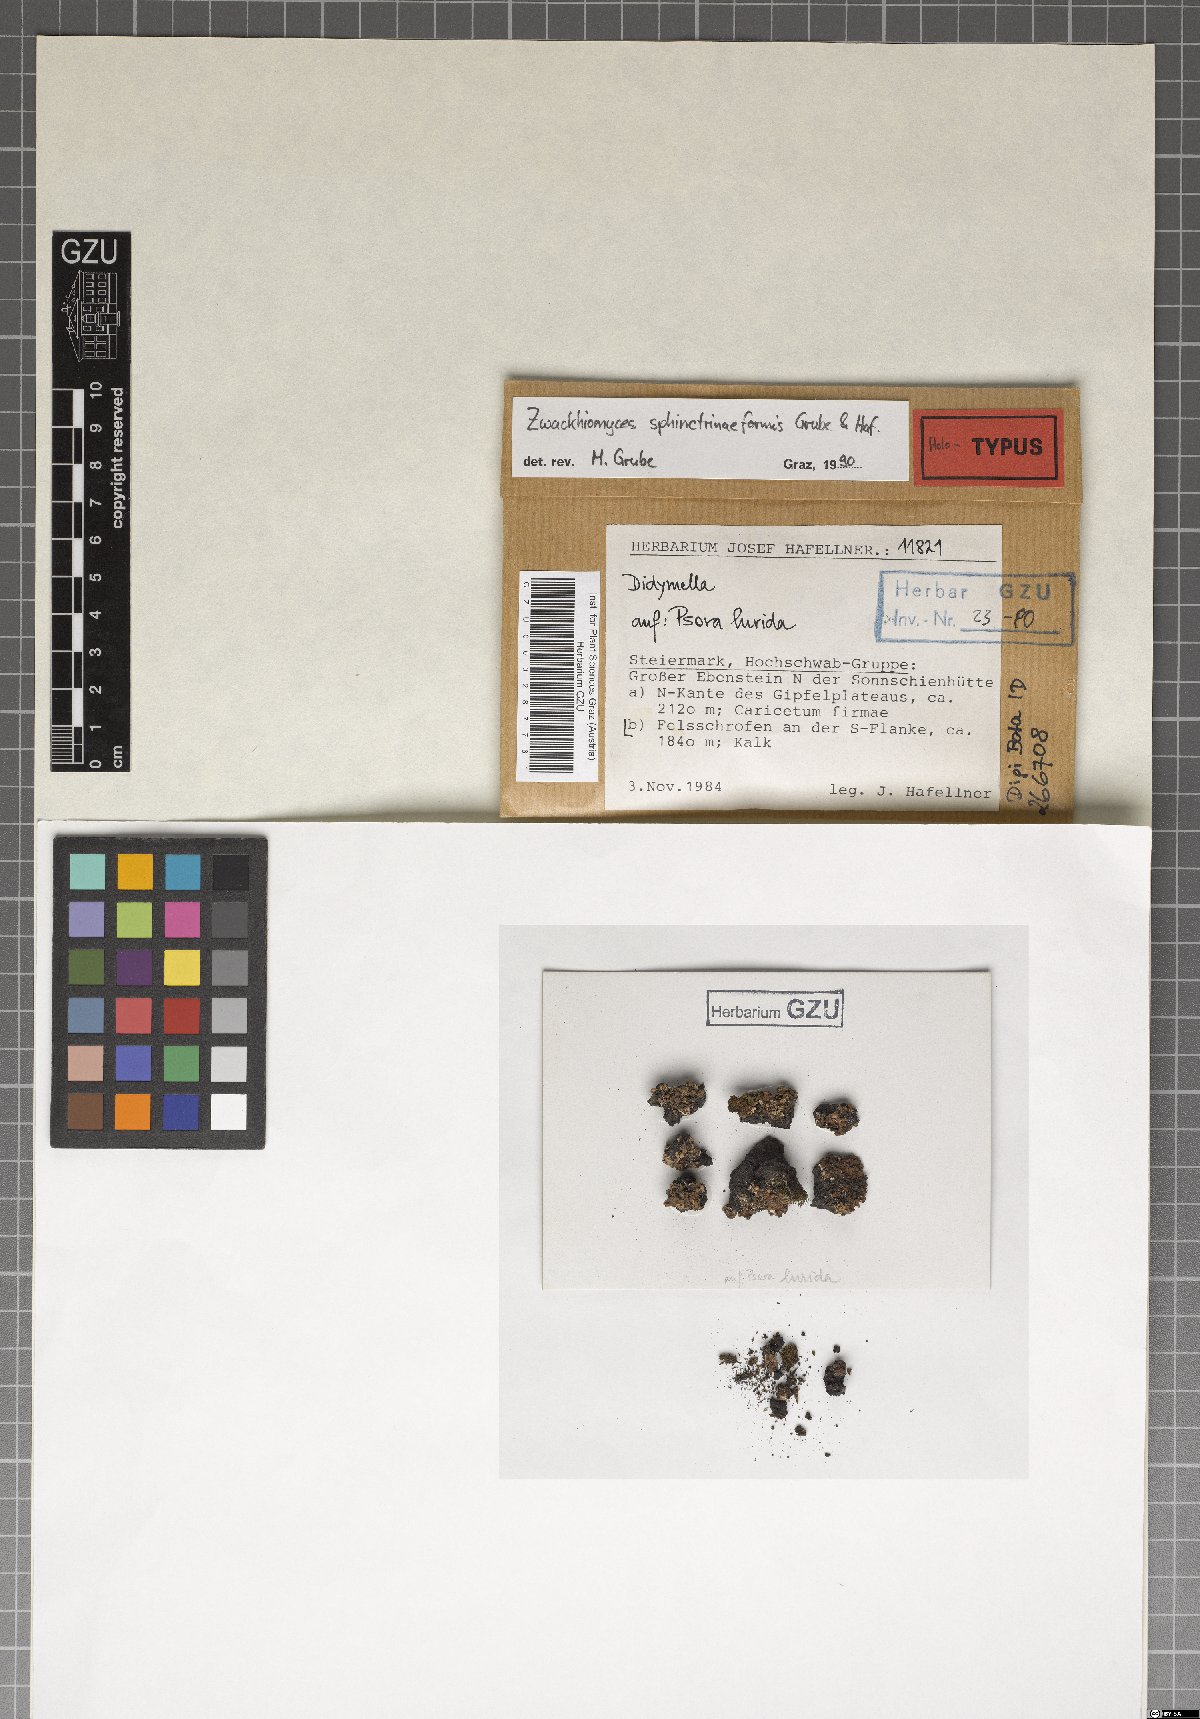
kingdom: Fungi
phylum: Ascomycota
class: Dothideomycetes
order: Collemopsidiales
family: Xanthopyreniaceae
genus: Zwackhiomyces
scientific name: Zwackhiomyces sphinctrinaeformis
